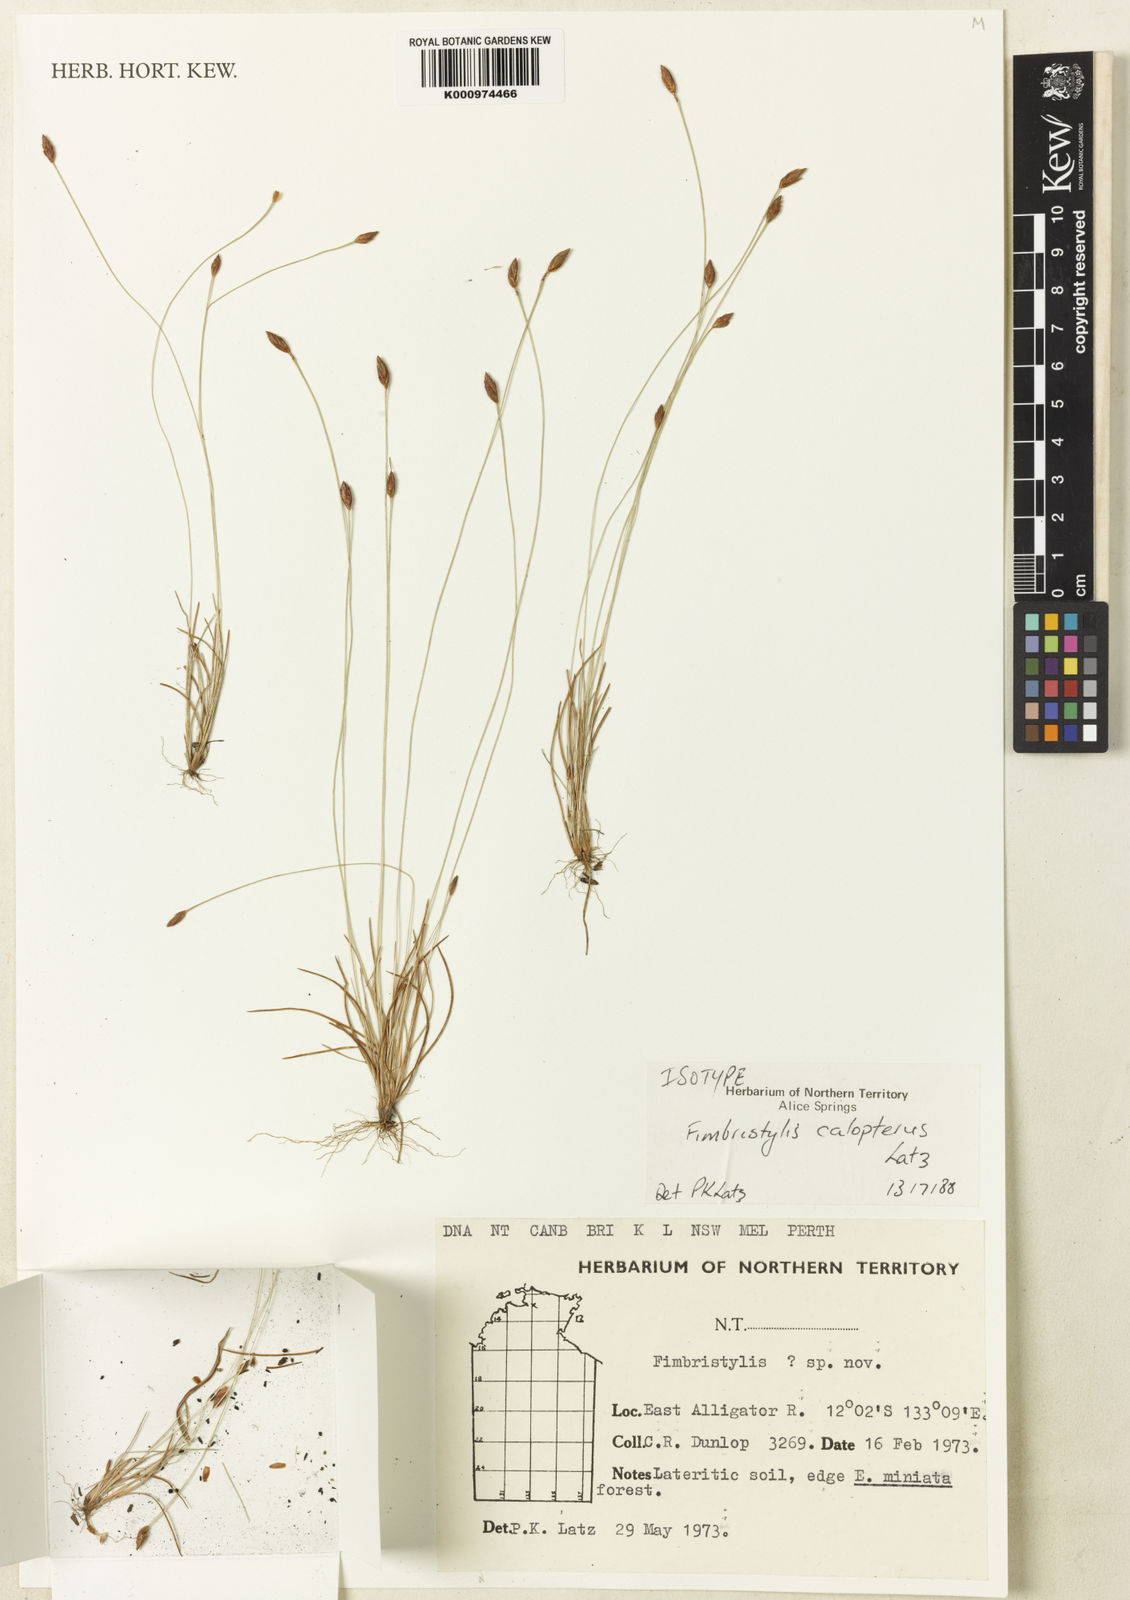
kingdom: Plantae
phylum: Tracheophyta
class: Liliopsida
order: Poales
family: Cyperaceae
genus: Fimbristylis
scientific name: Fimbristylis caloptera
